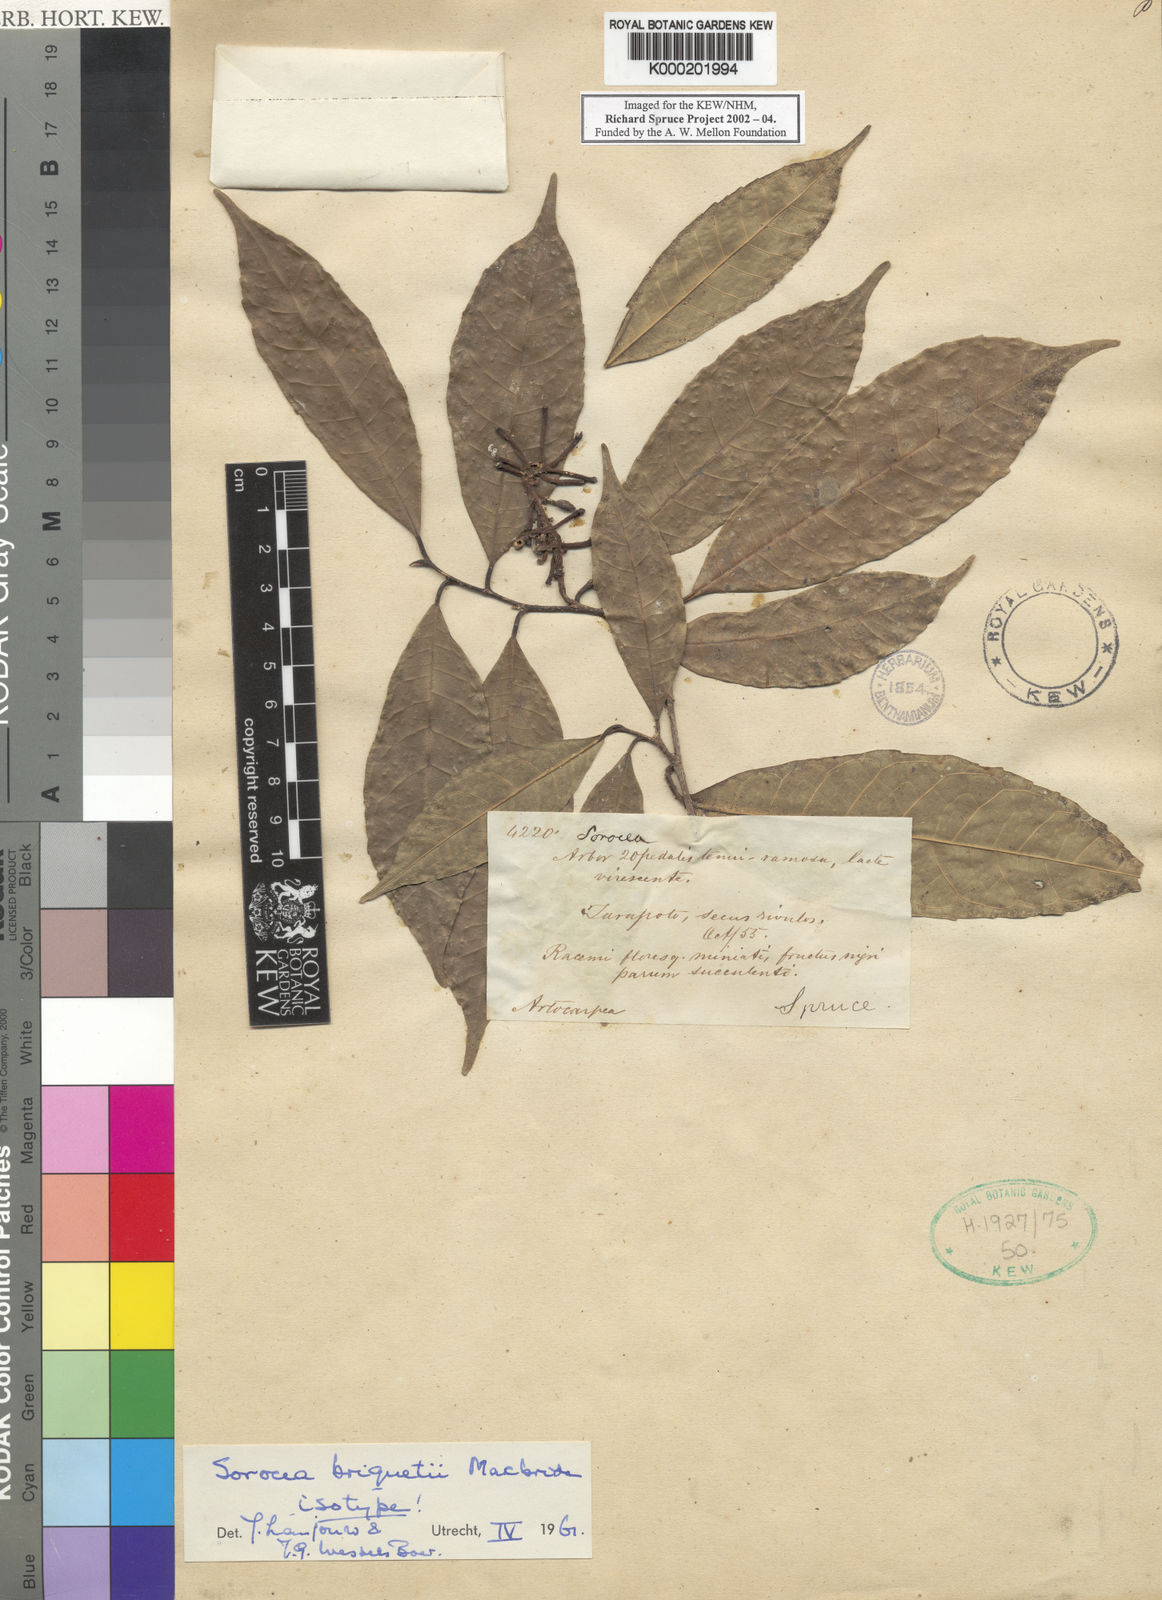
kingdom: Plantae
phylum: Tracheophyta
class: Magnoliopsida
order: Rosales
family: Moraceae
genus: Sorocea
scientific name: Sorocea briquetii
